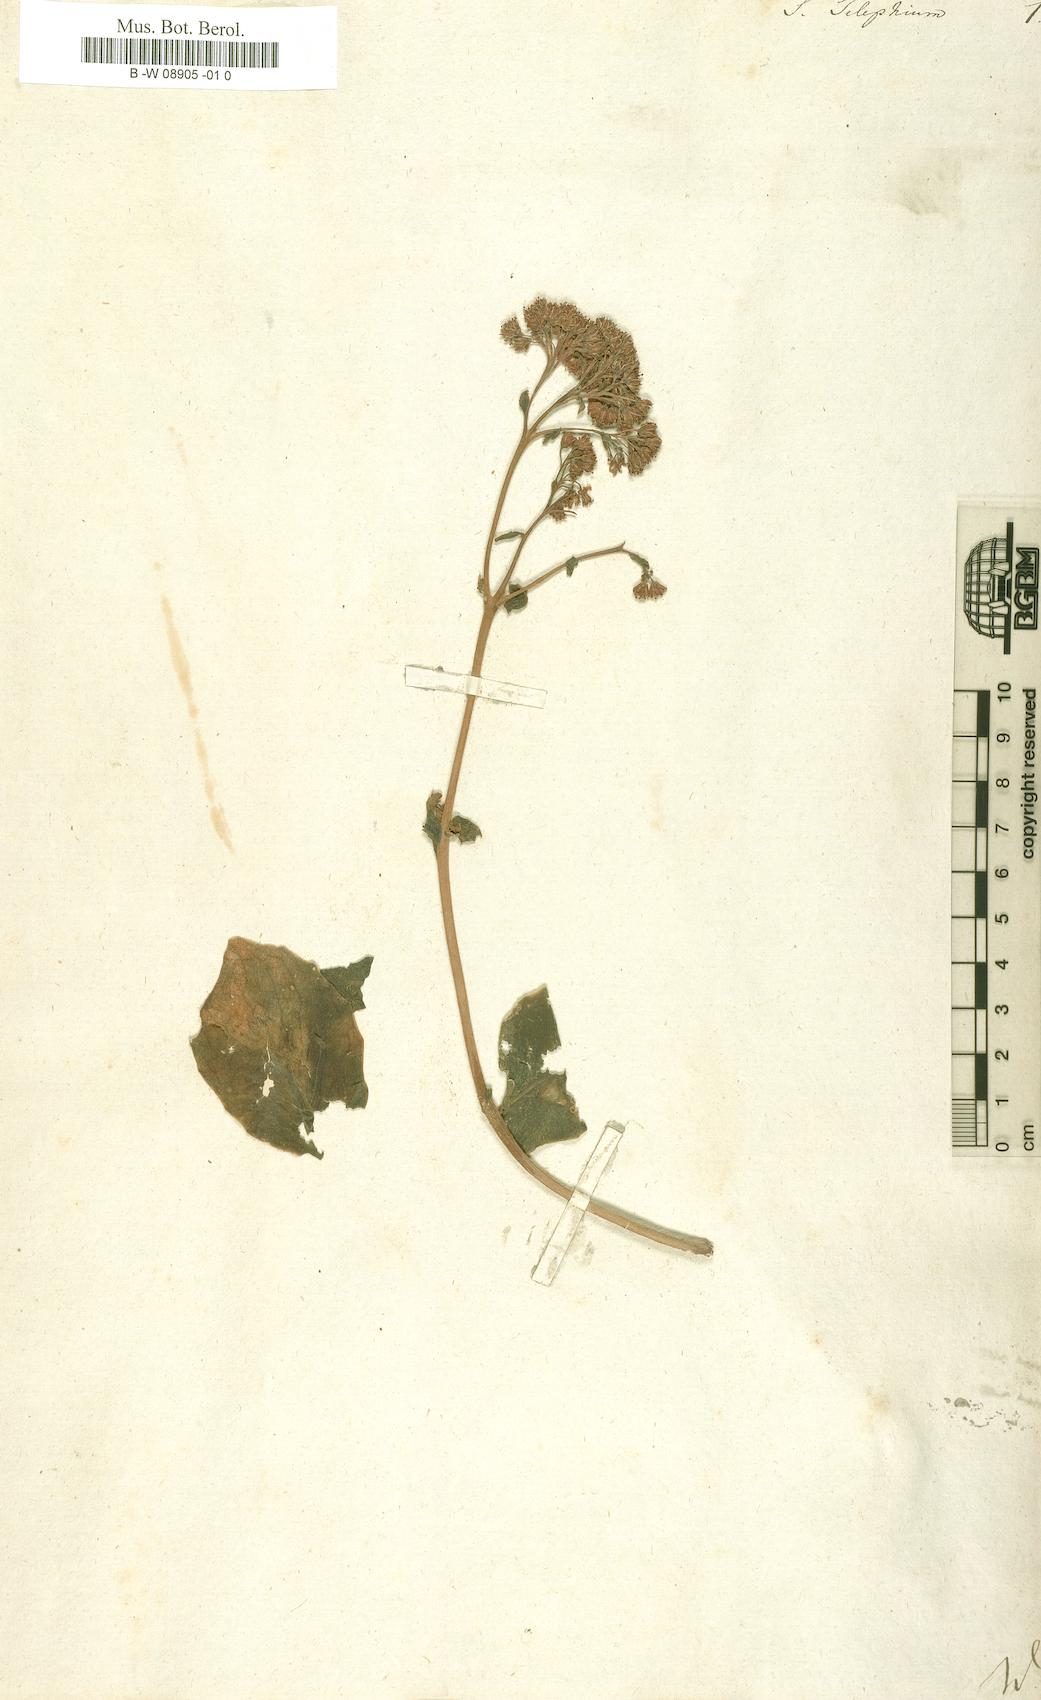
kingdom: Plantae
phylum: Tracheophyta
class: Magnoliopsida
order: Saxifragales
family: Crassulaceae
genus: Hylotelephium
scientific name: Hylotelephium telephium
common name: Live-forever
